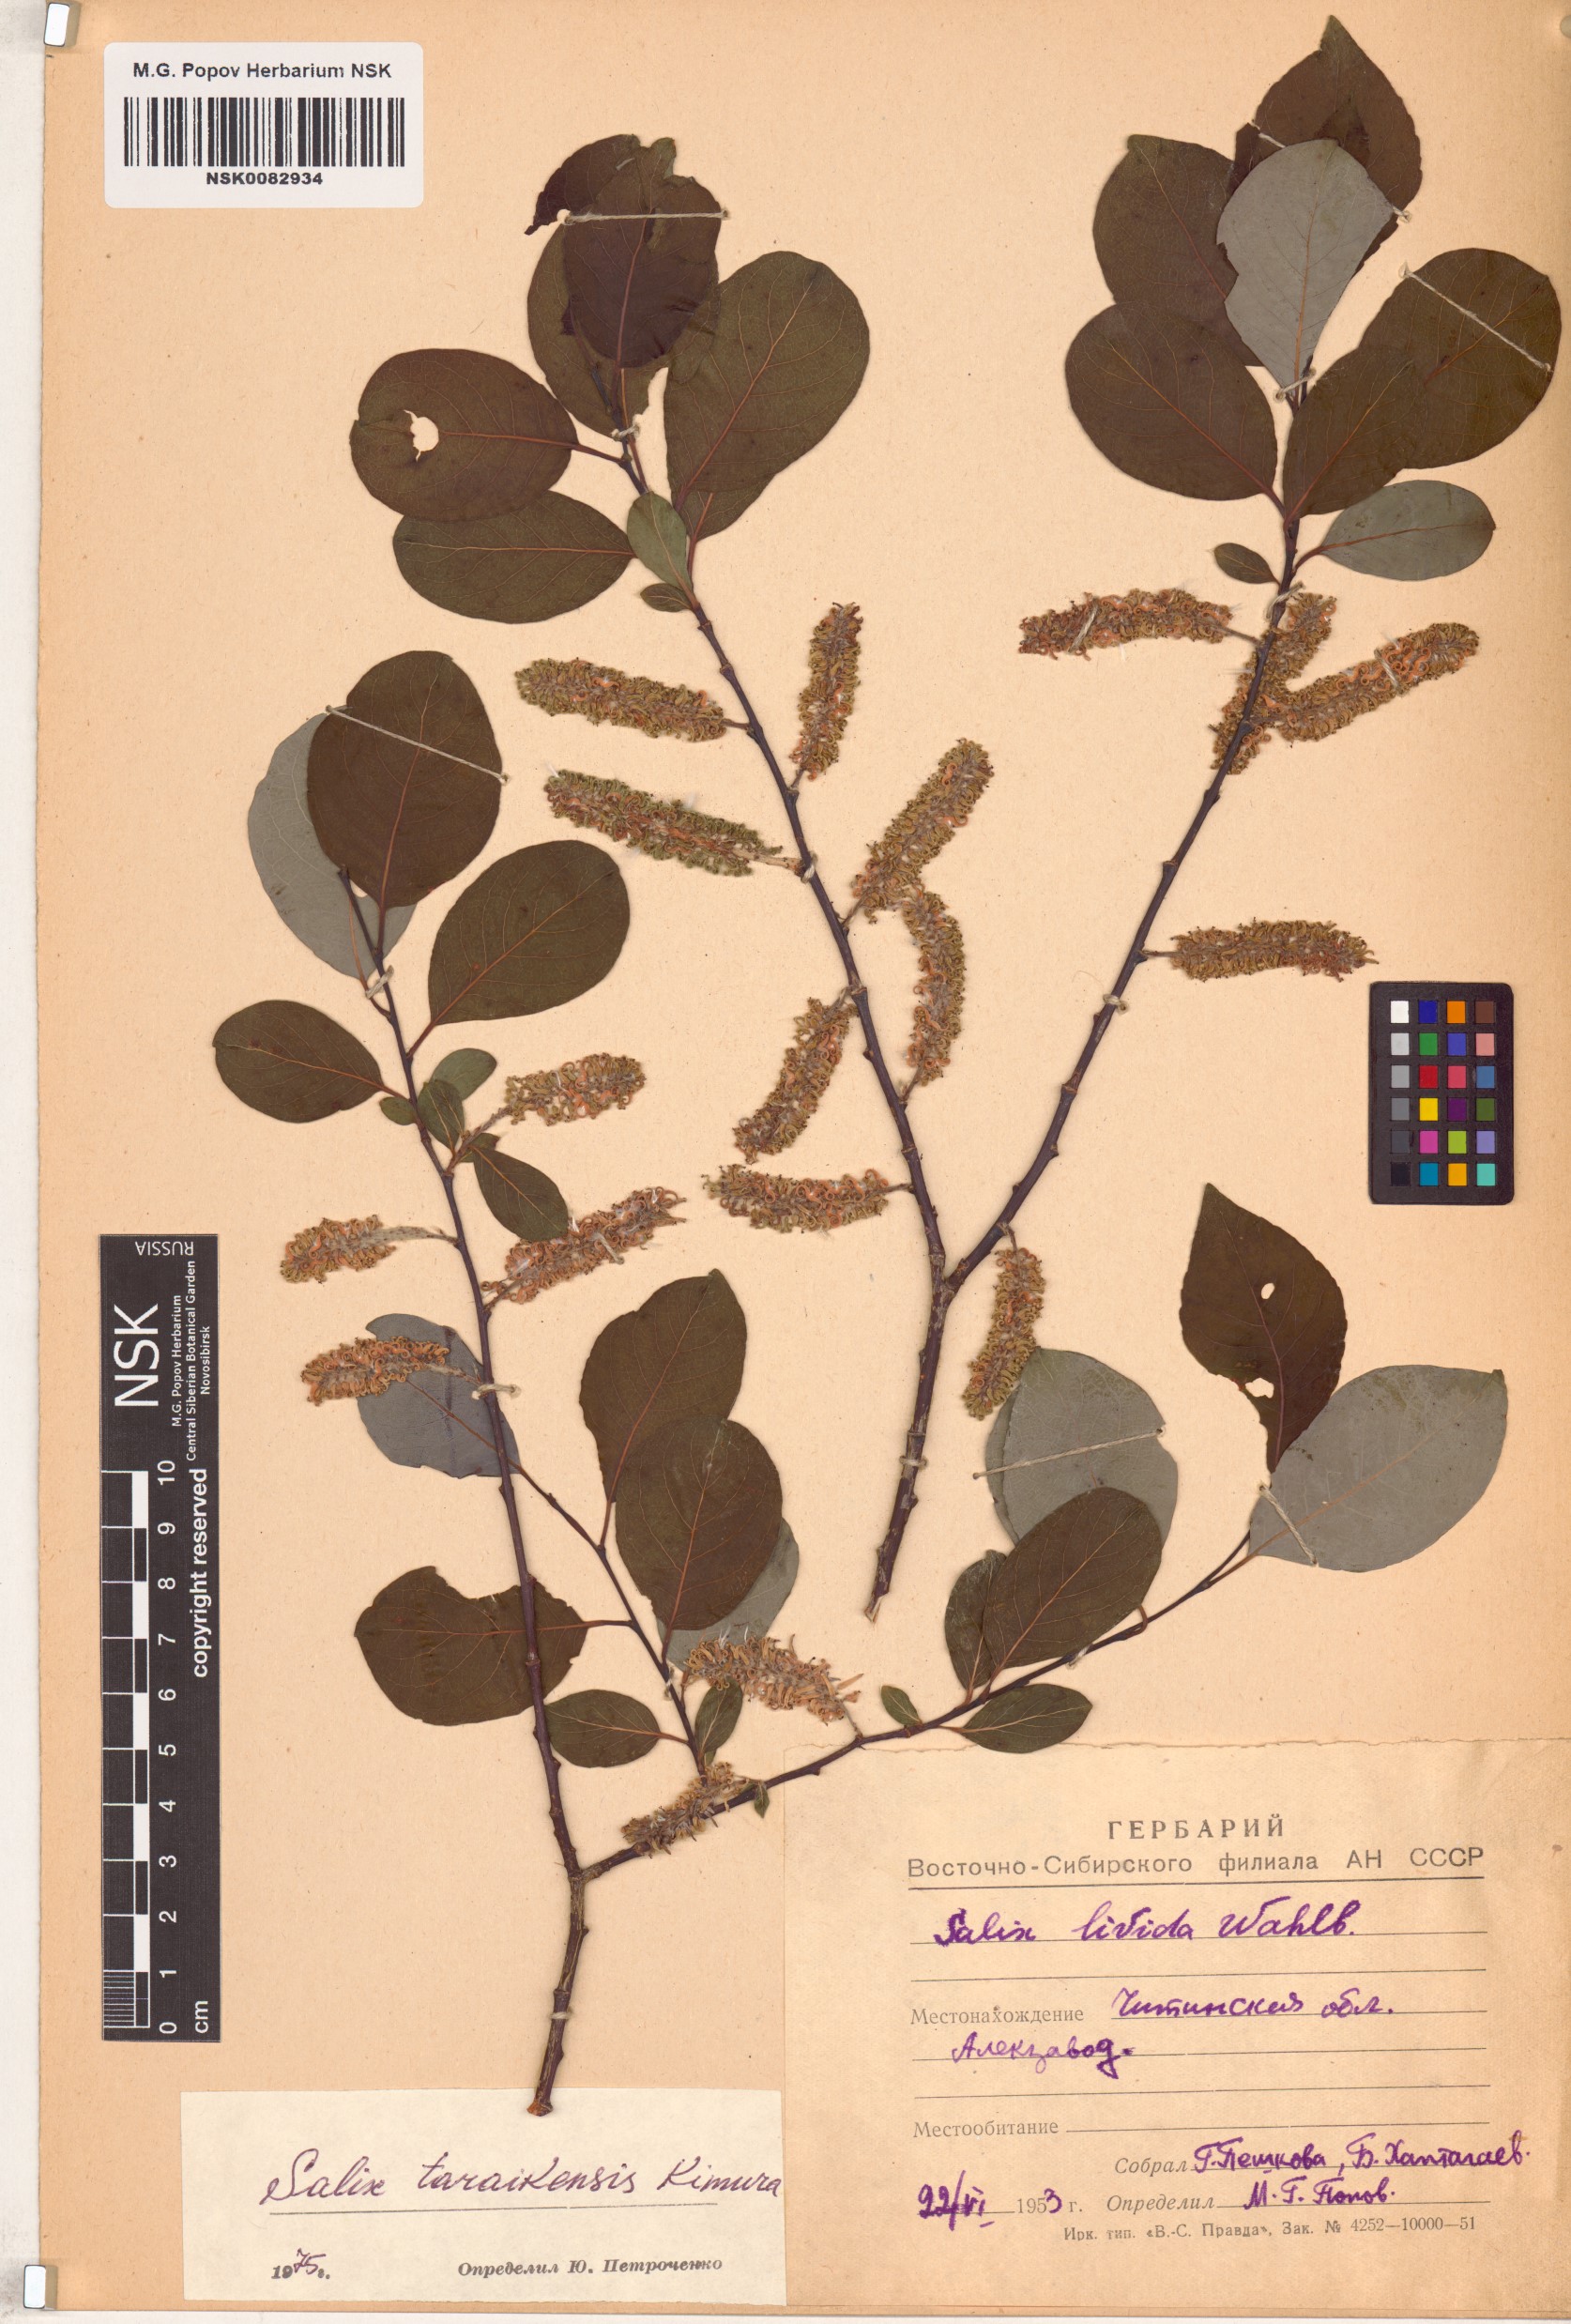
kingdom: Plantae
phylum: Tracheophyta
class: Magnoliopsida
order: Malpighiales
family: Salicaceae
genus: Salix
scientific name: Salix taraikensis
